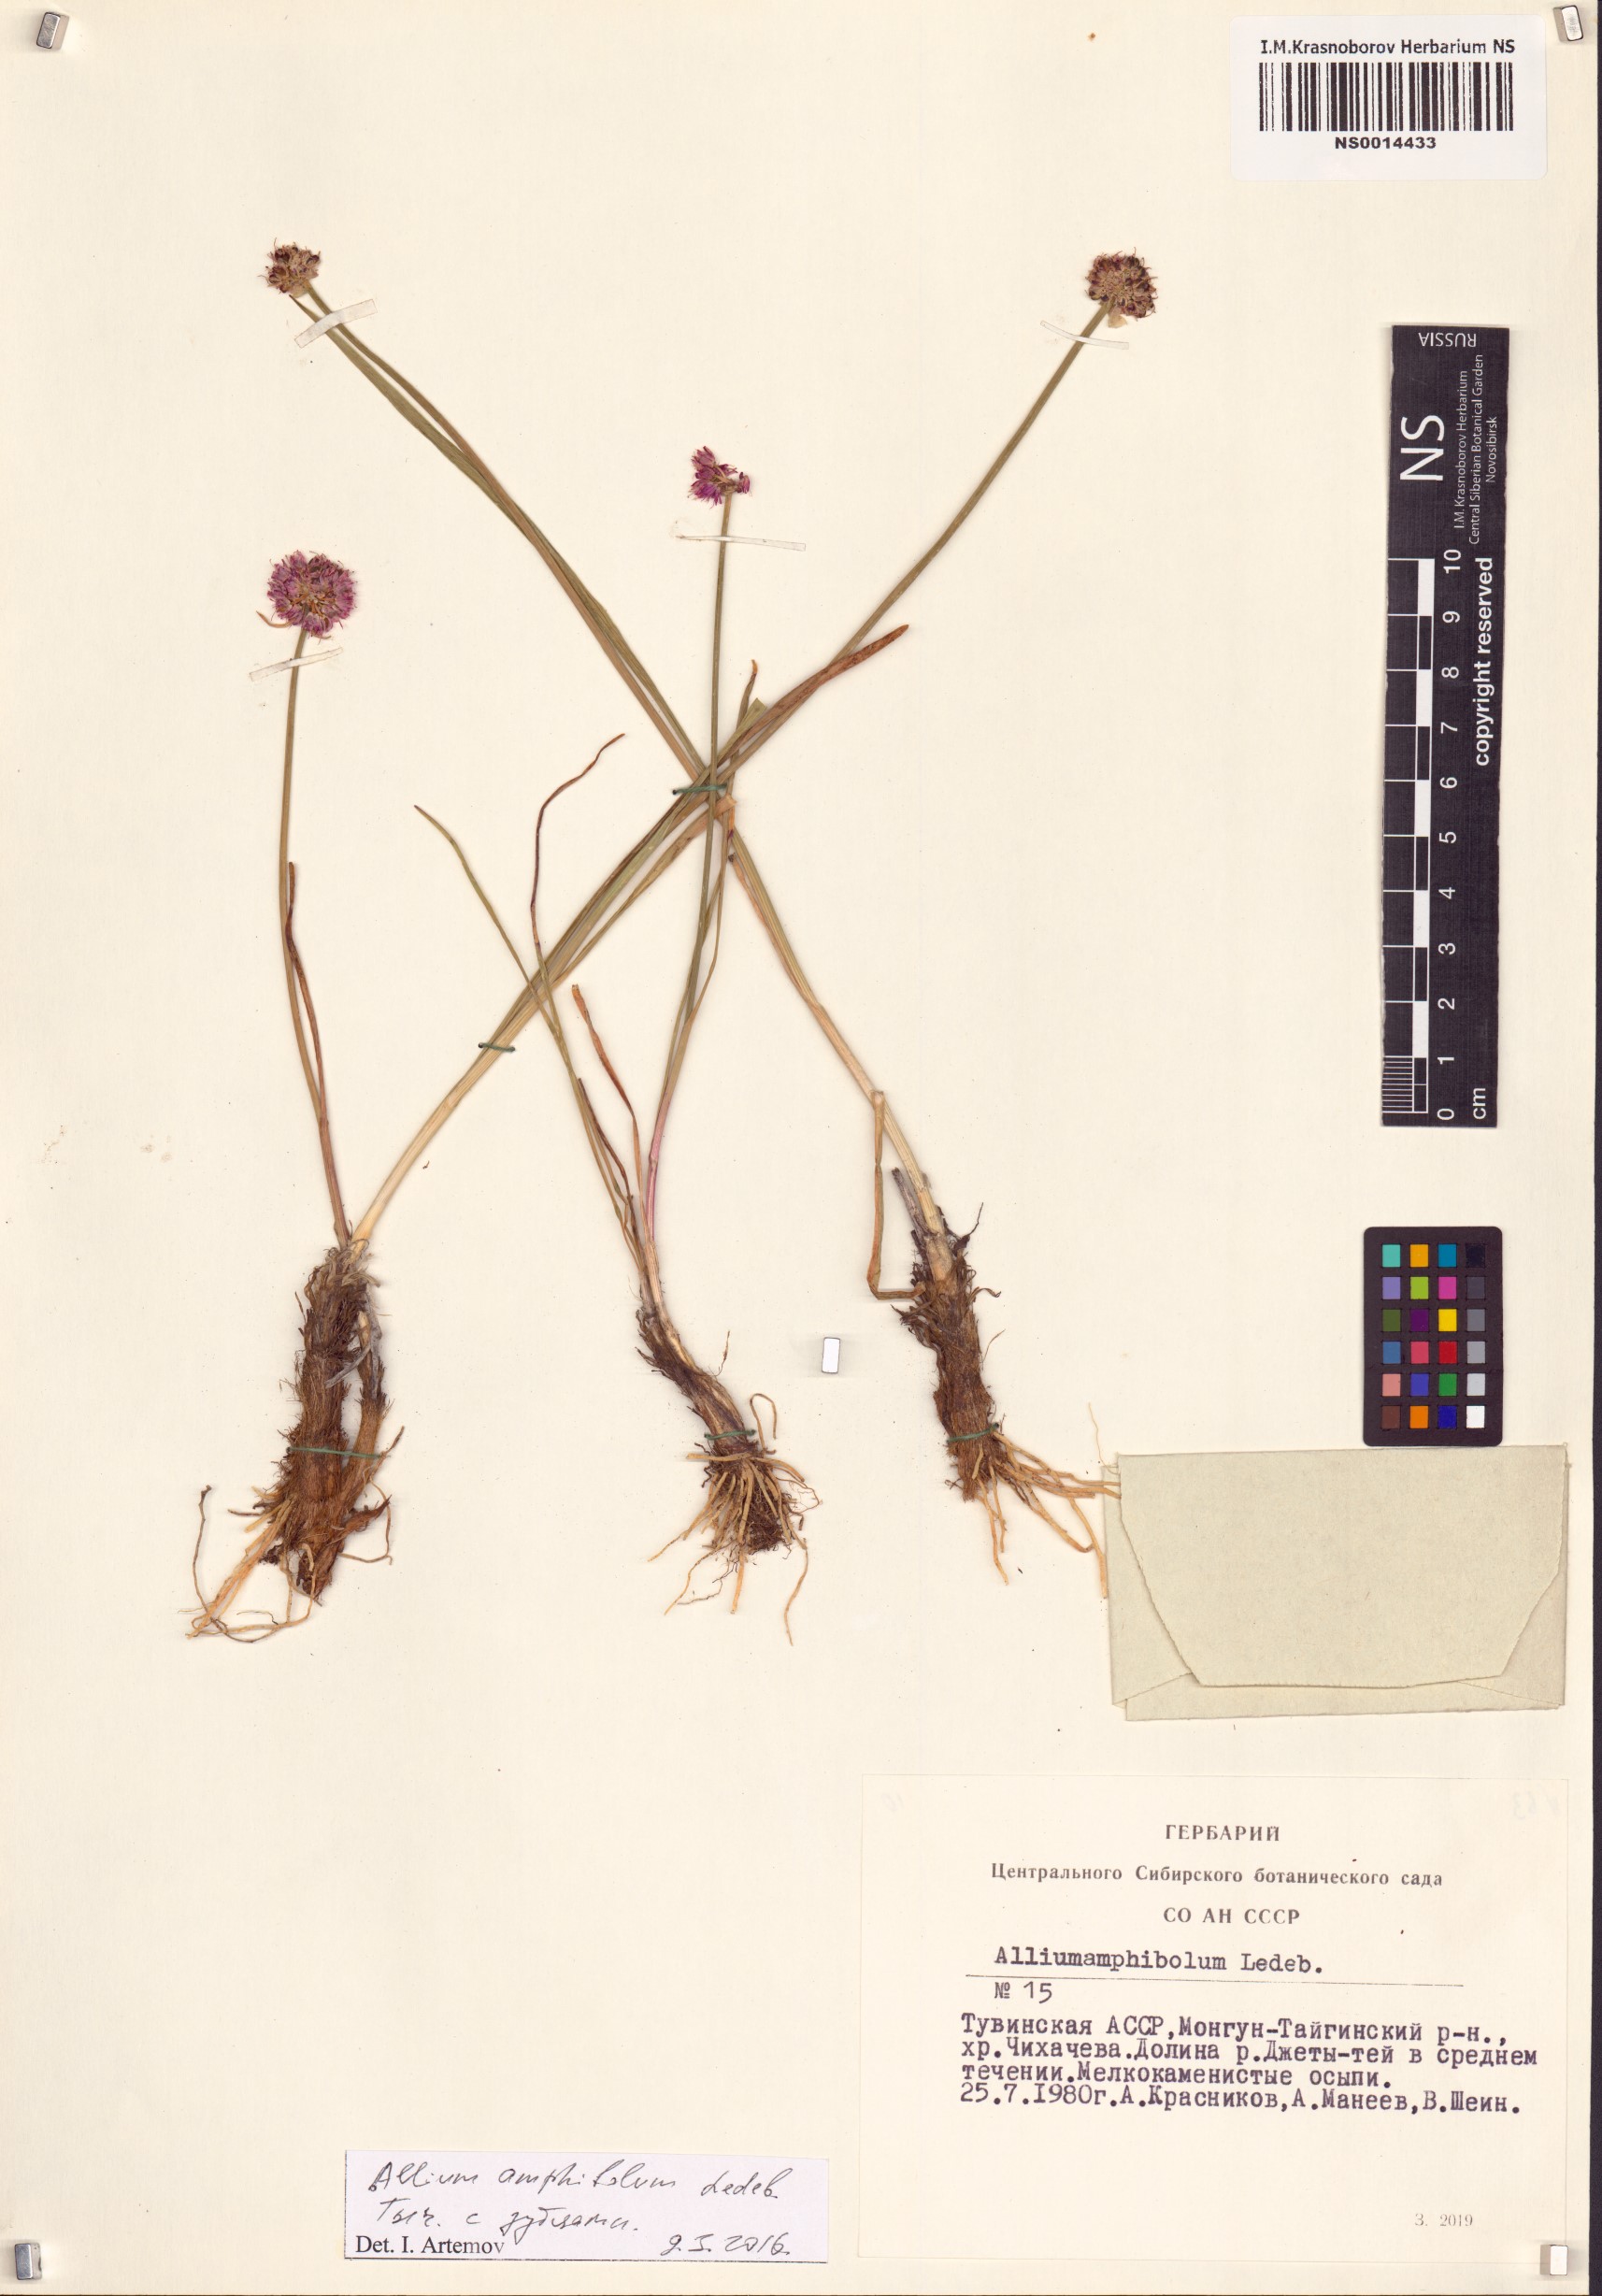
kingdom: Plantae
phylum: Tracheophyta
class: Liliopsida
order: Asparagales
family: Amaryllidaceae
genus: Allium
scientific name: Allium amphibolum
